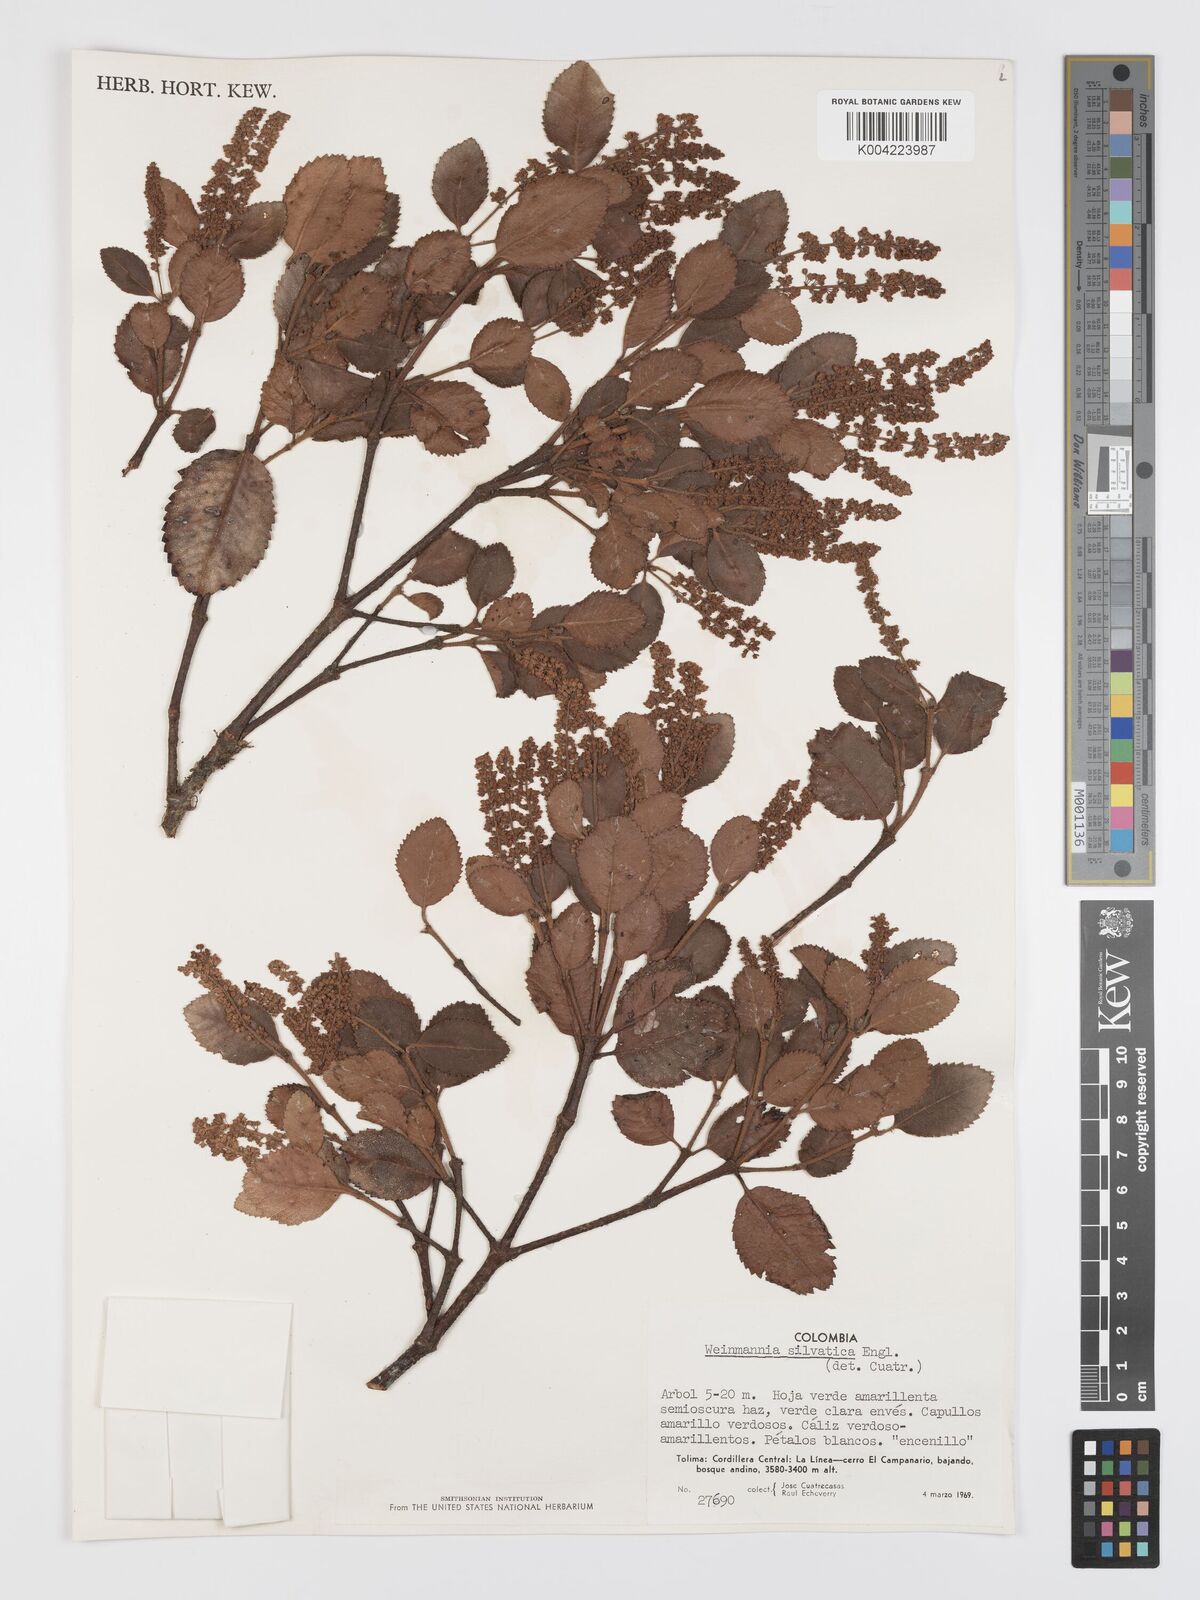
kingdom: Plantae
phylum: Tracheophyta
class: Magnoliopsida
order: Oxalidales
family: Cunoniaceae
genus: Weinmannia
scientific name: Weinmannia auriculata
